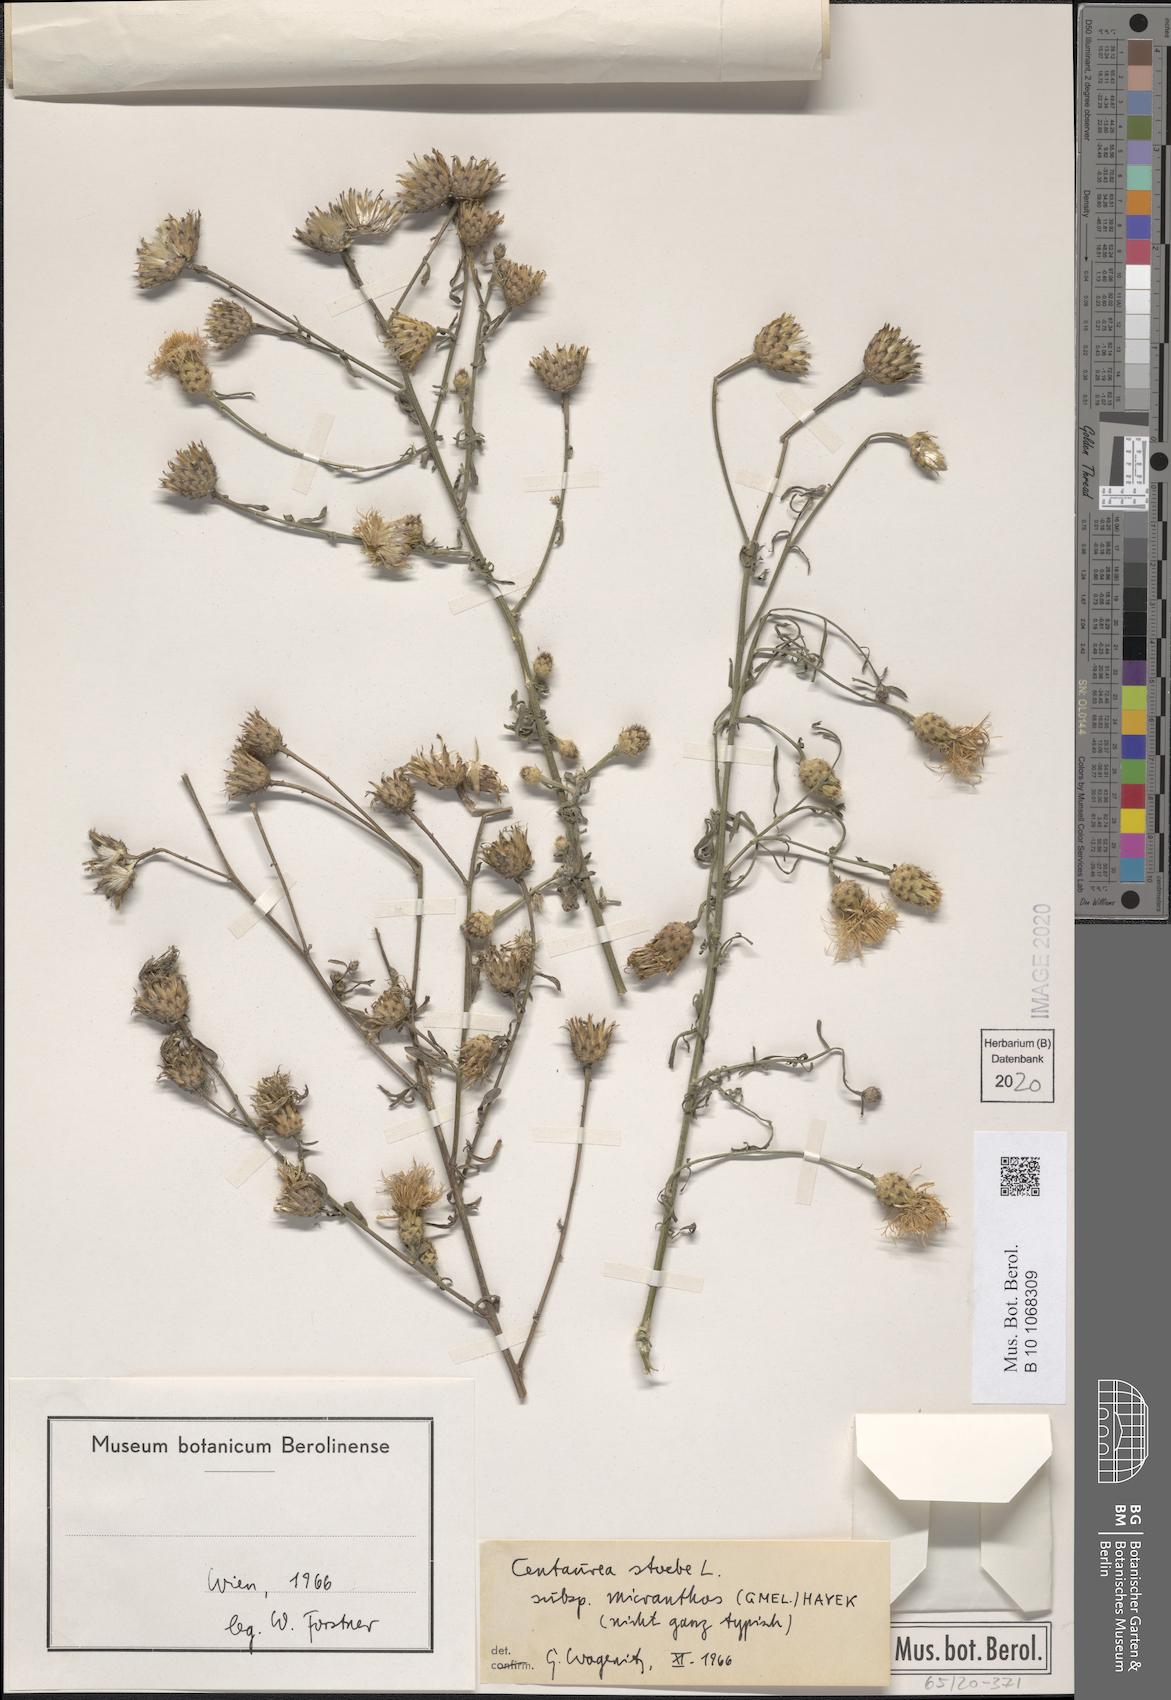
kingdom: Plantae
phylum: Tracheophyta
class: Magnoliopsida
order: Asterales
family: Asteraceae
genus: Centaurea
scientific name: Centaurea australis
